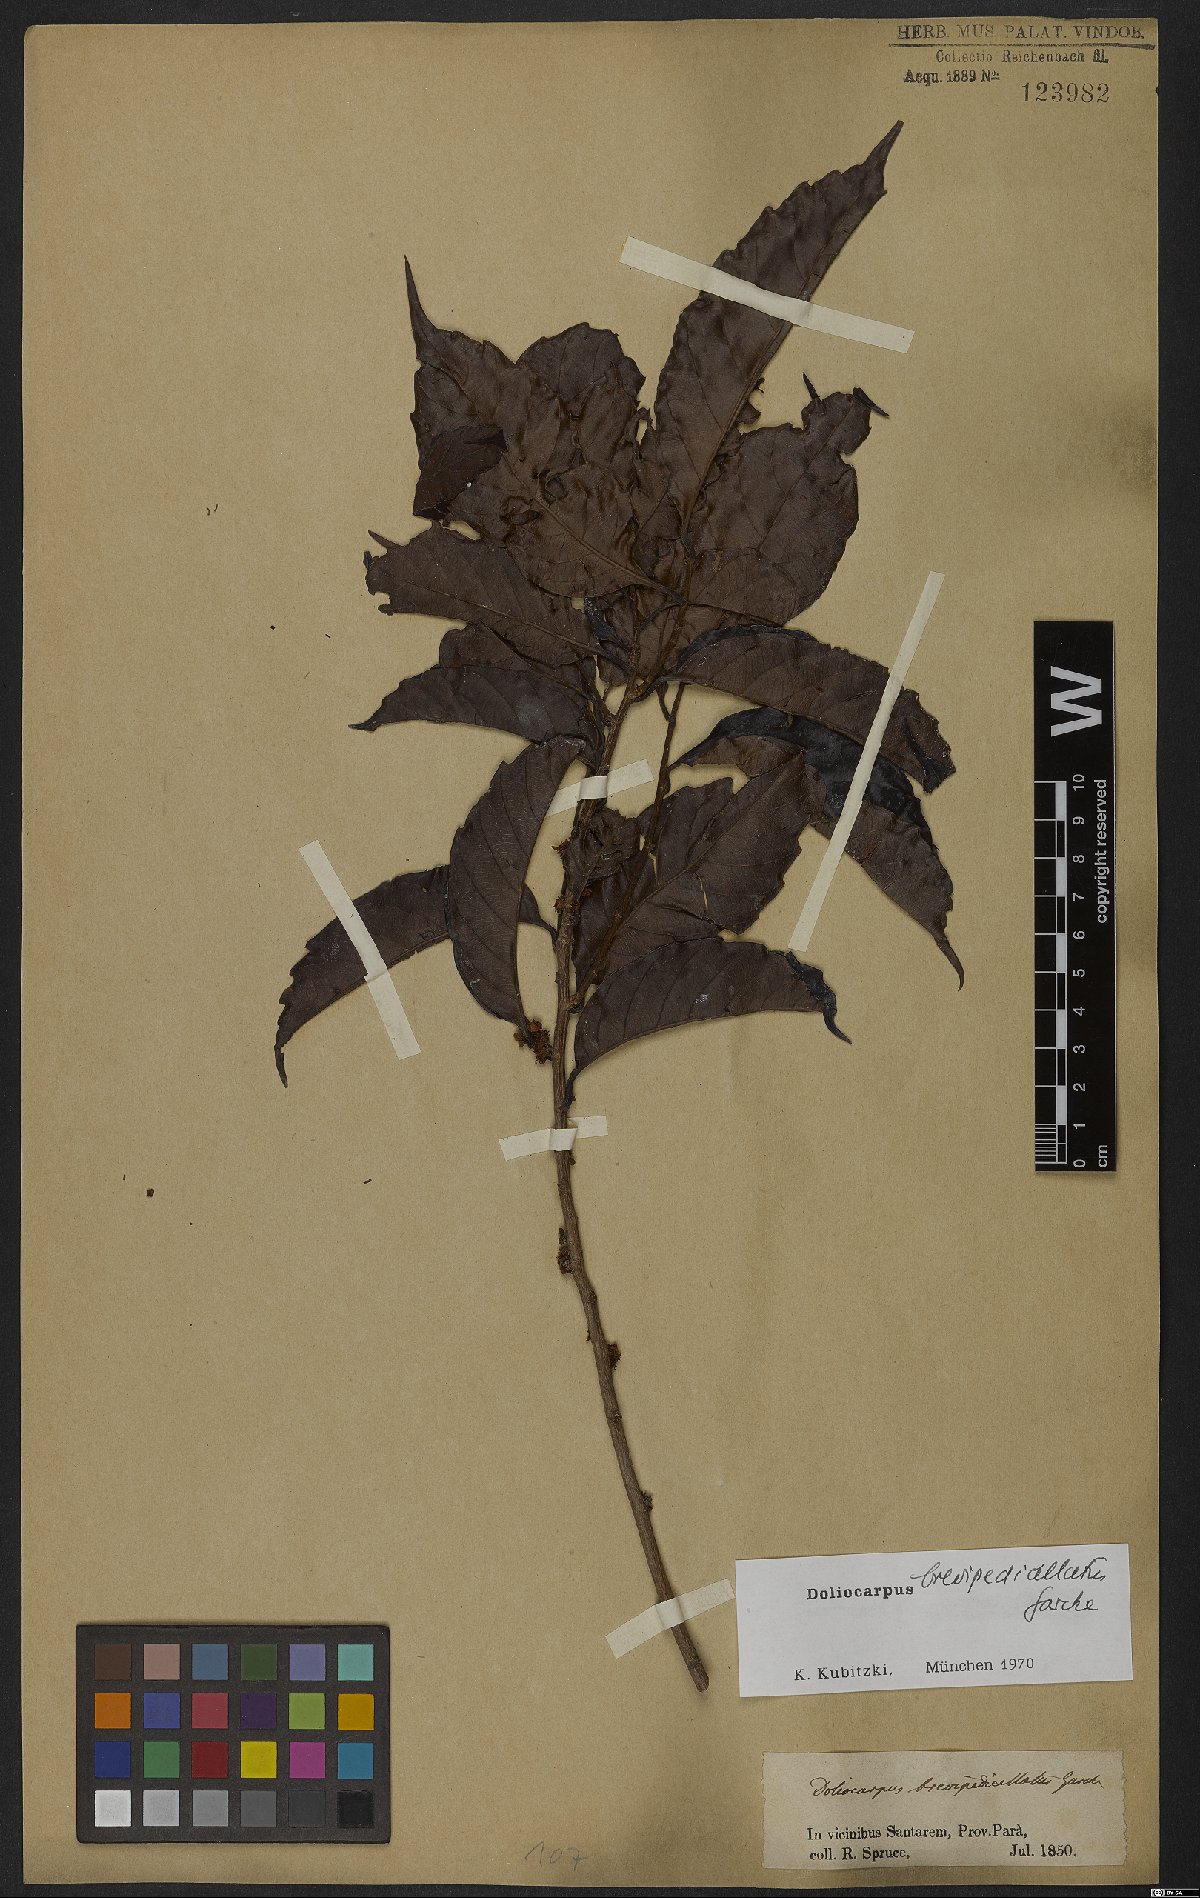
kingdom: Plantae
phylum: Tracheophyta
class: Magnoliopsida
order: Dilleniales
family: Dilleniaceae
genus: Doliocarpus
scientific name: Doliocarpus brevipedicellatus
